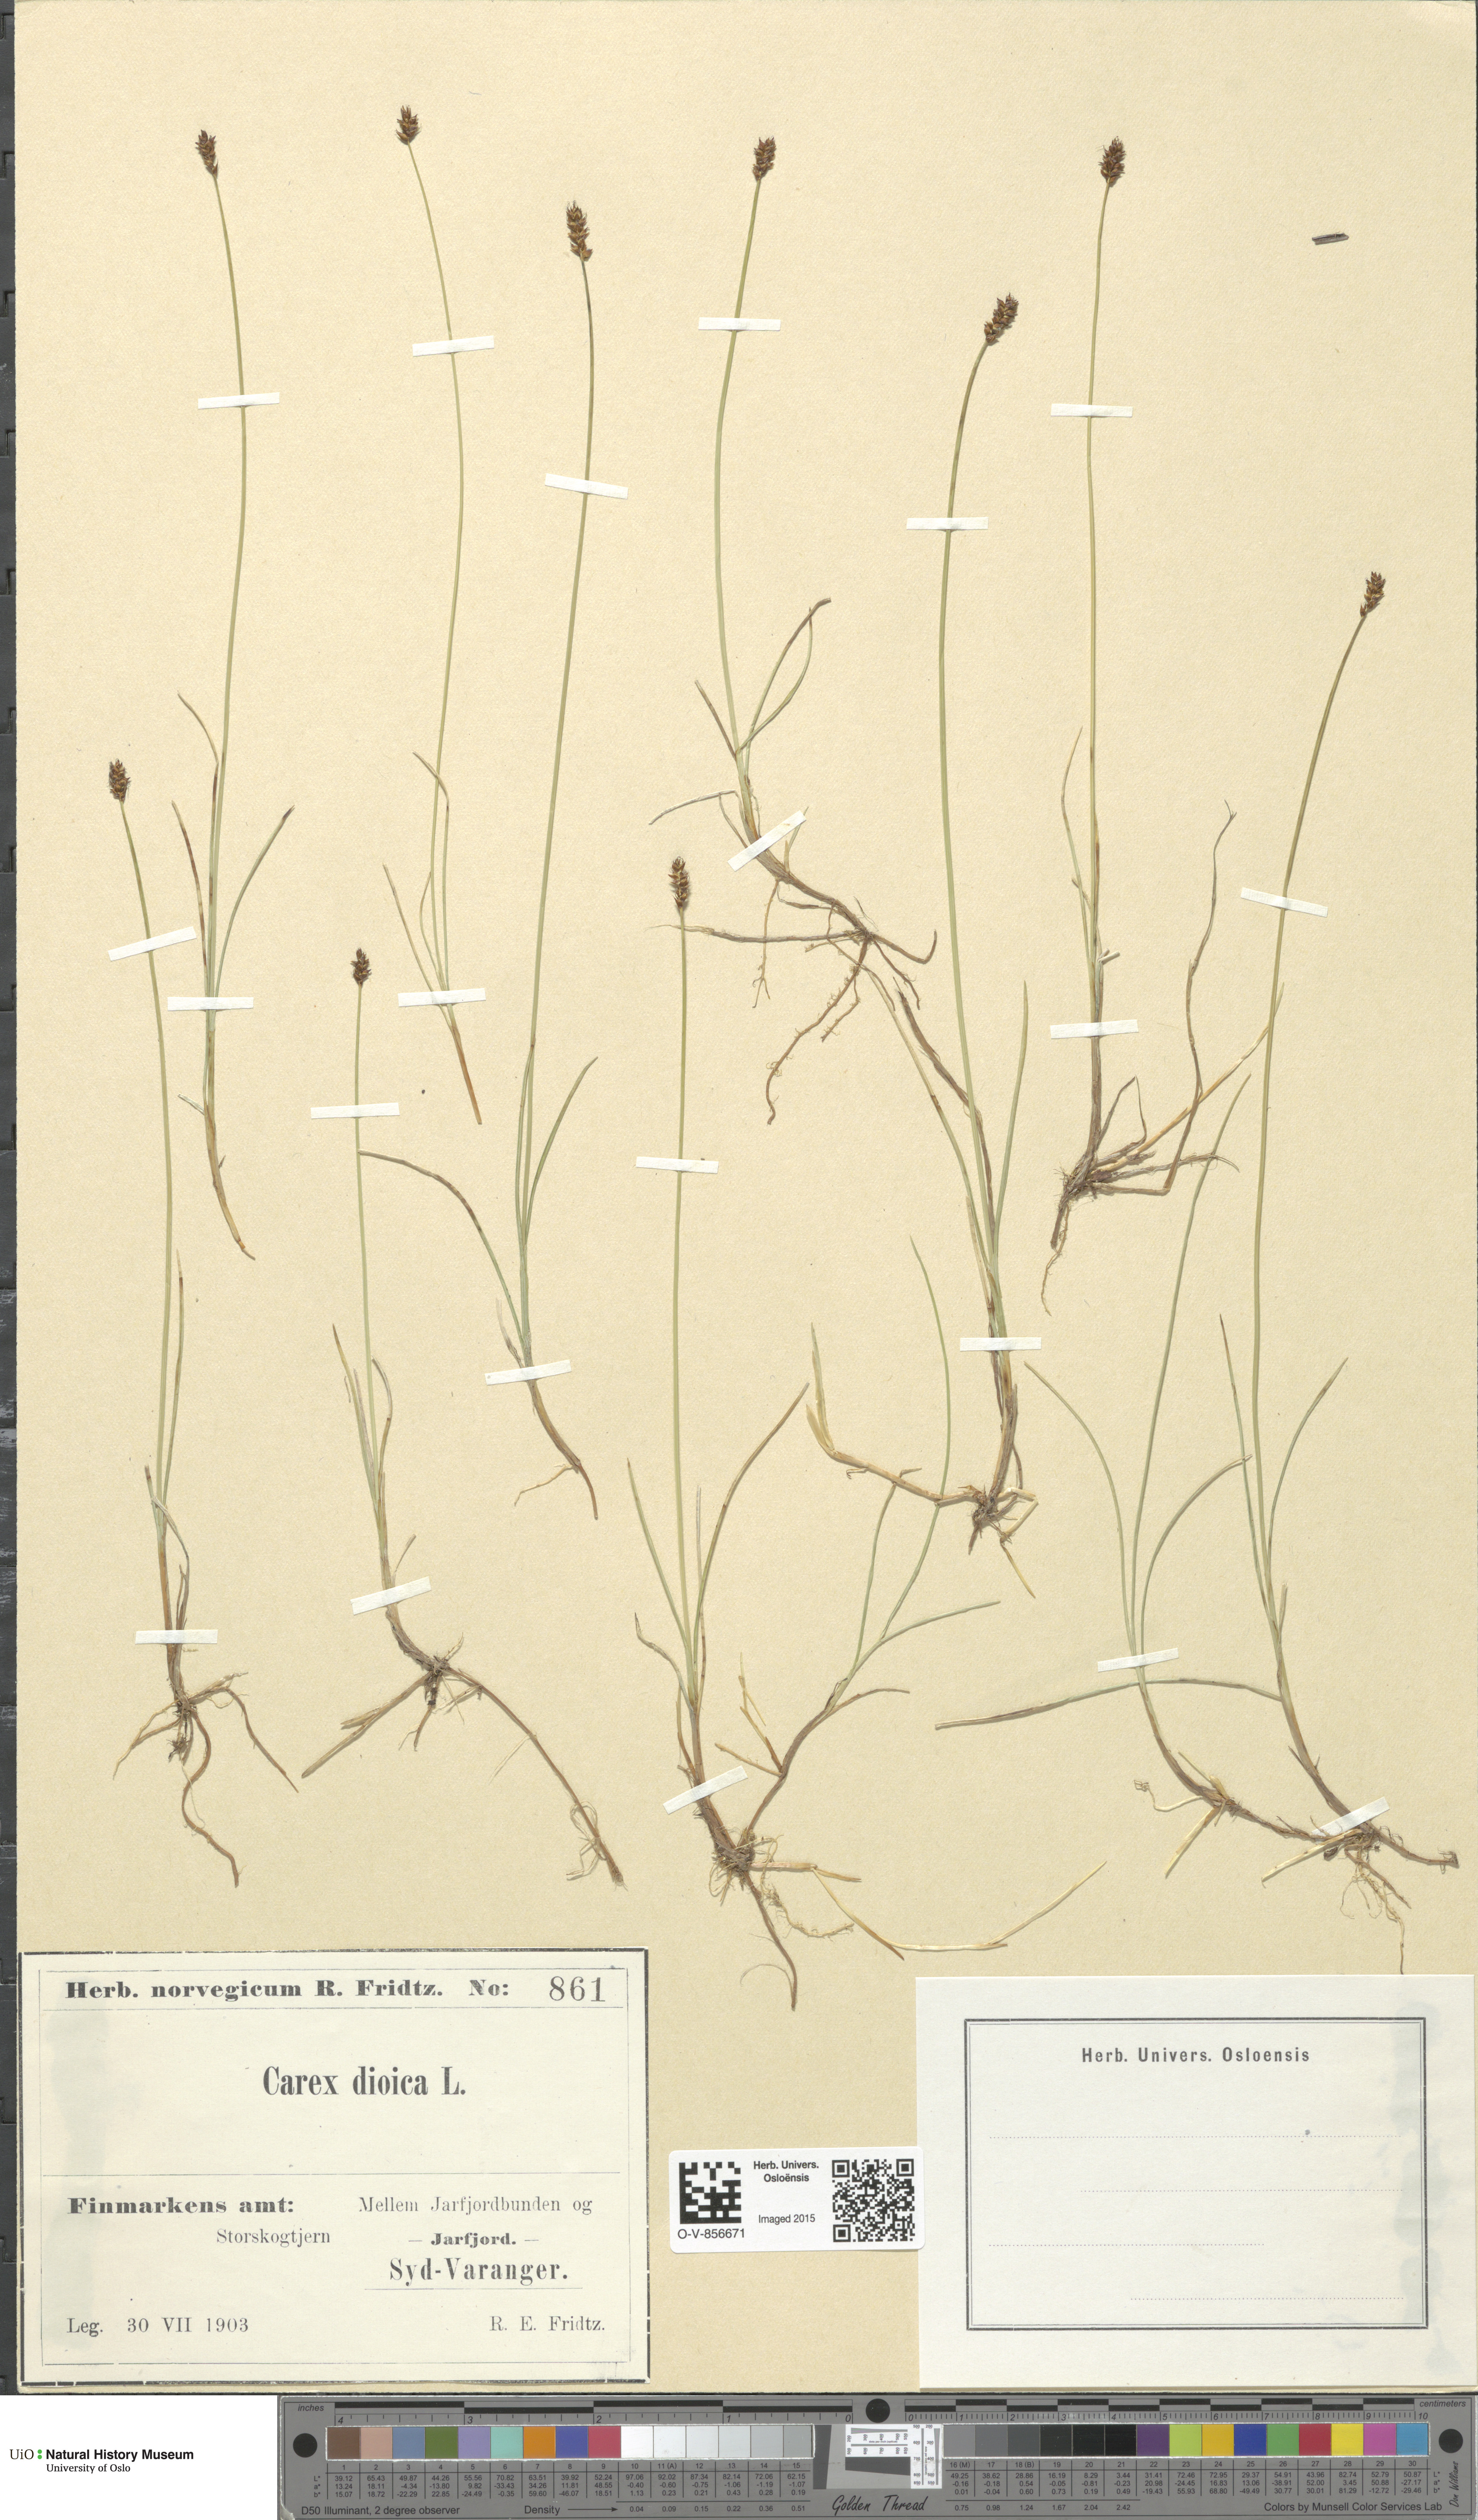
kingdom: Plantae
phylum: Tracheophyta
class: Liliopsida
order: Poales
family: Cyperaceae
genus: Carex
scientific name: Carex dioica
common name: Dioecious sedge
